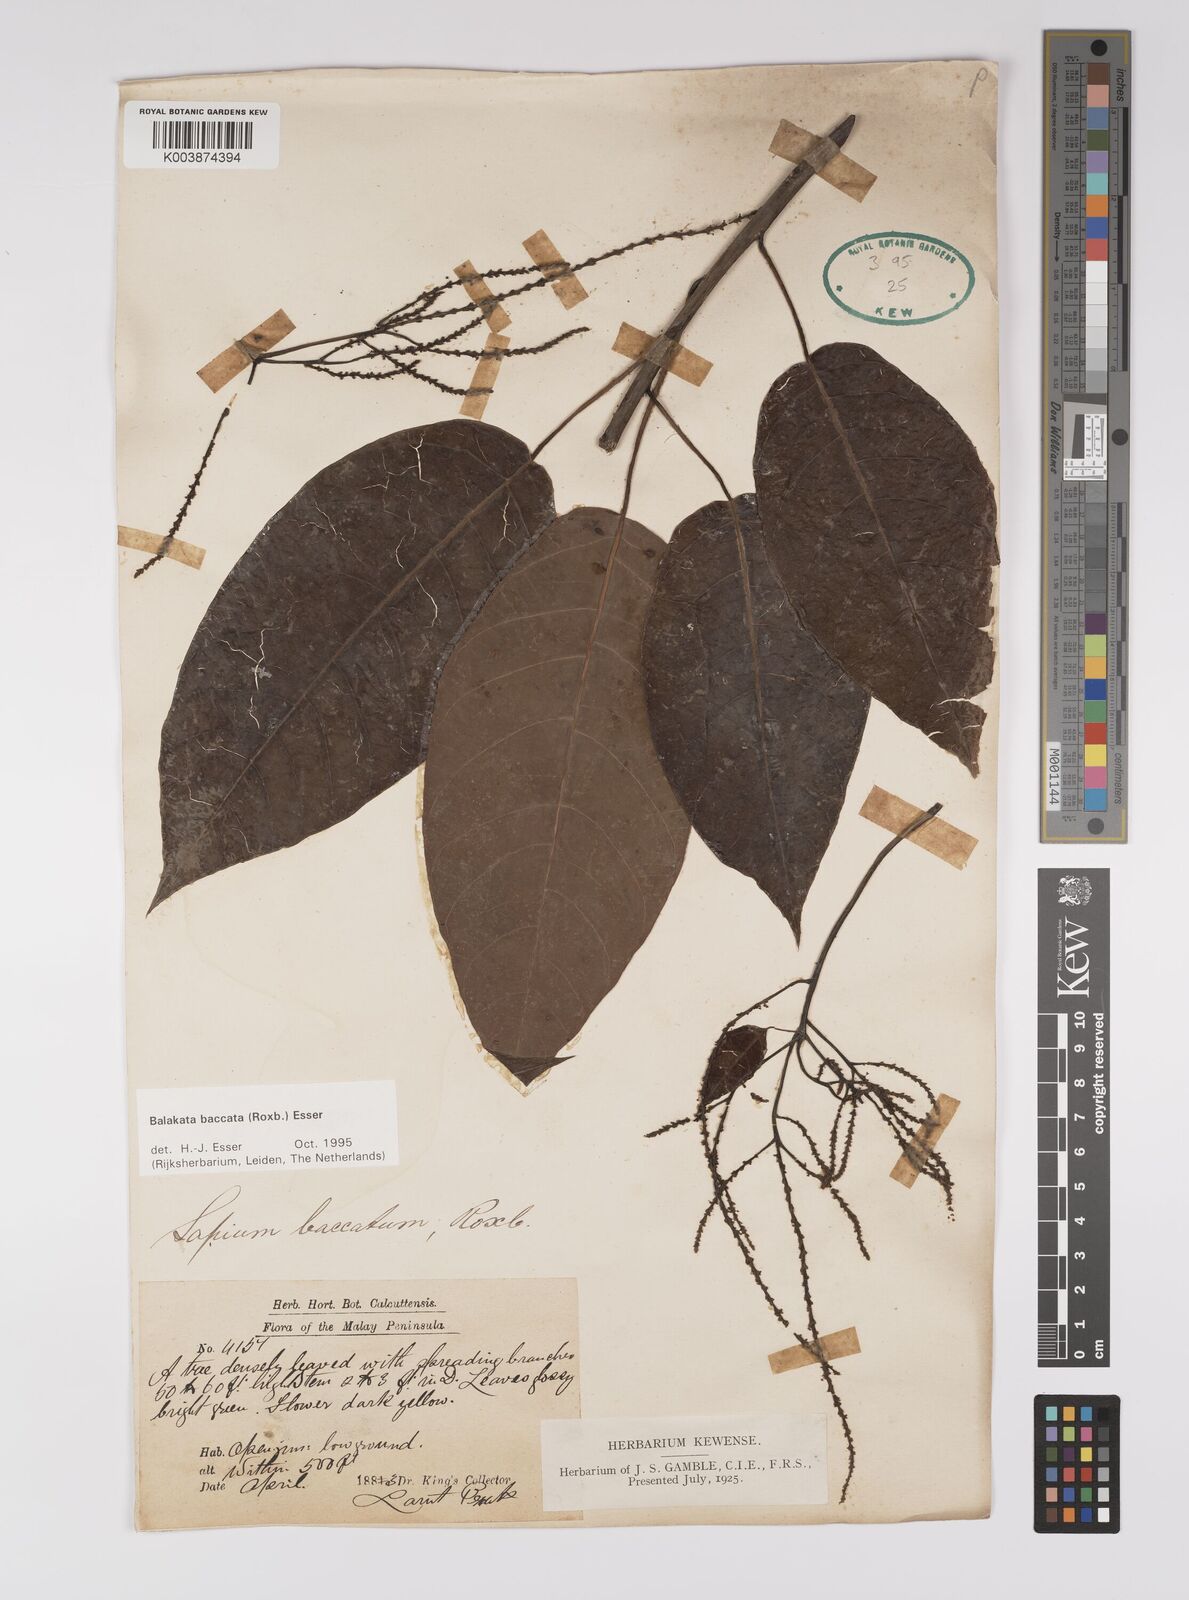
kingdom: Plantae
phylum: Tracheophyta
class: Magnoliopsida
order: Malpighiales
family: Euphorbiaceae
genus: Balakata
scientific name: Balakata baccata
